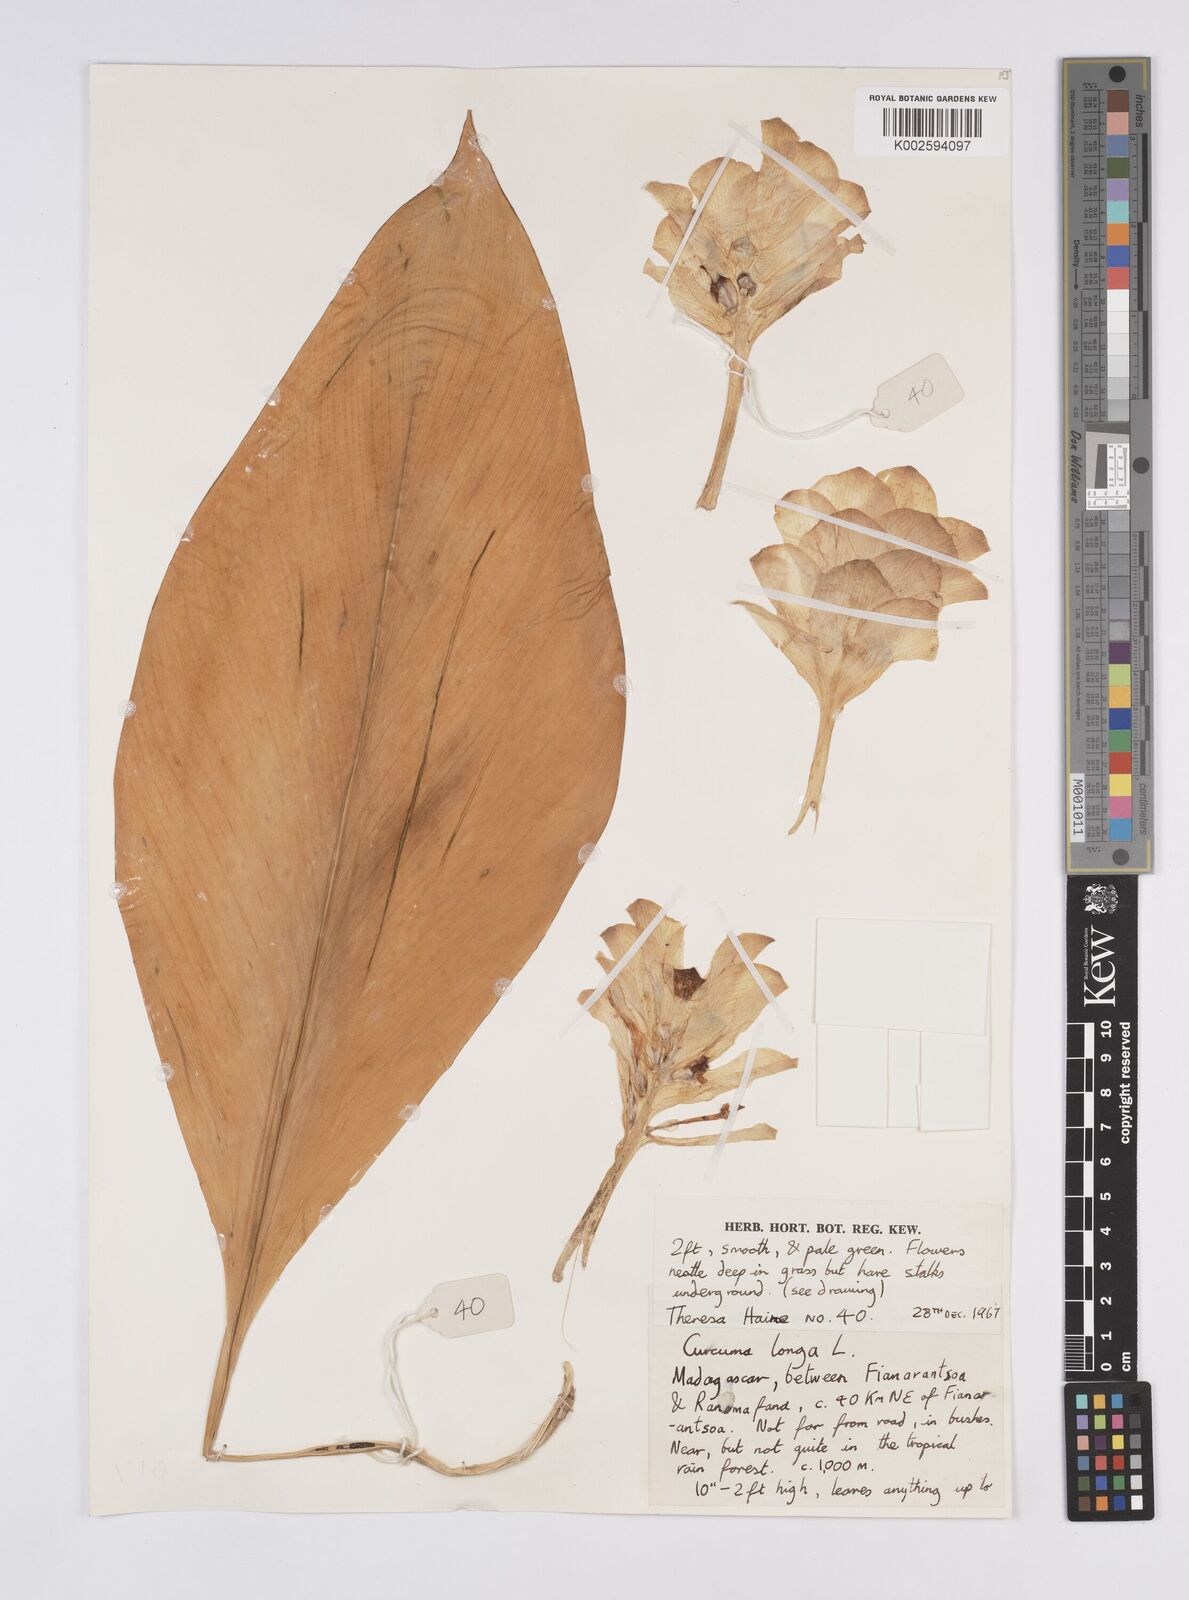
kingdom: Plantae
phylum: Tracheophyta
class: Liliopsida
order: Zingiberales
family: Zingiberaceae
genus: Curcuma
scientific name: Curcuma longa
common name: Turmeric
